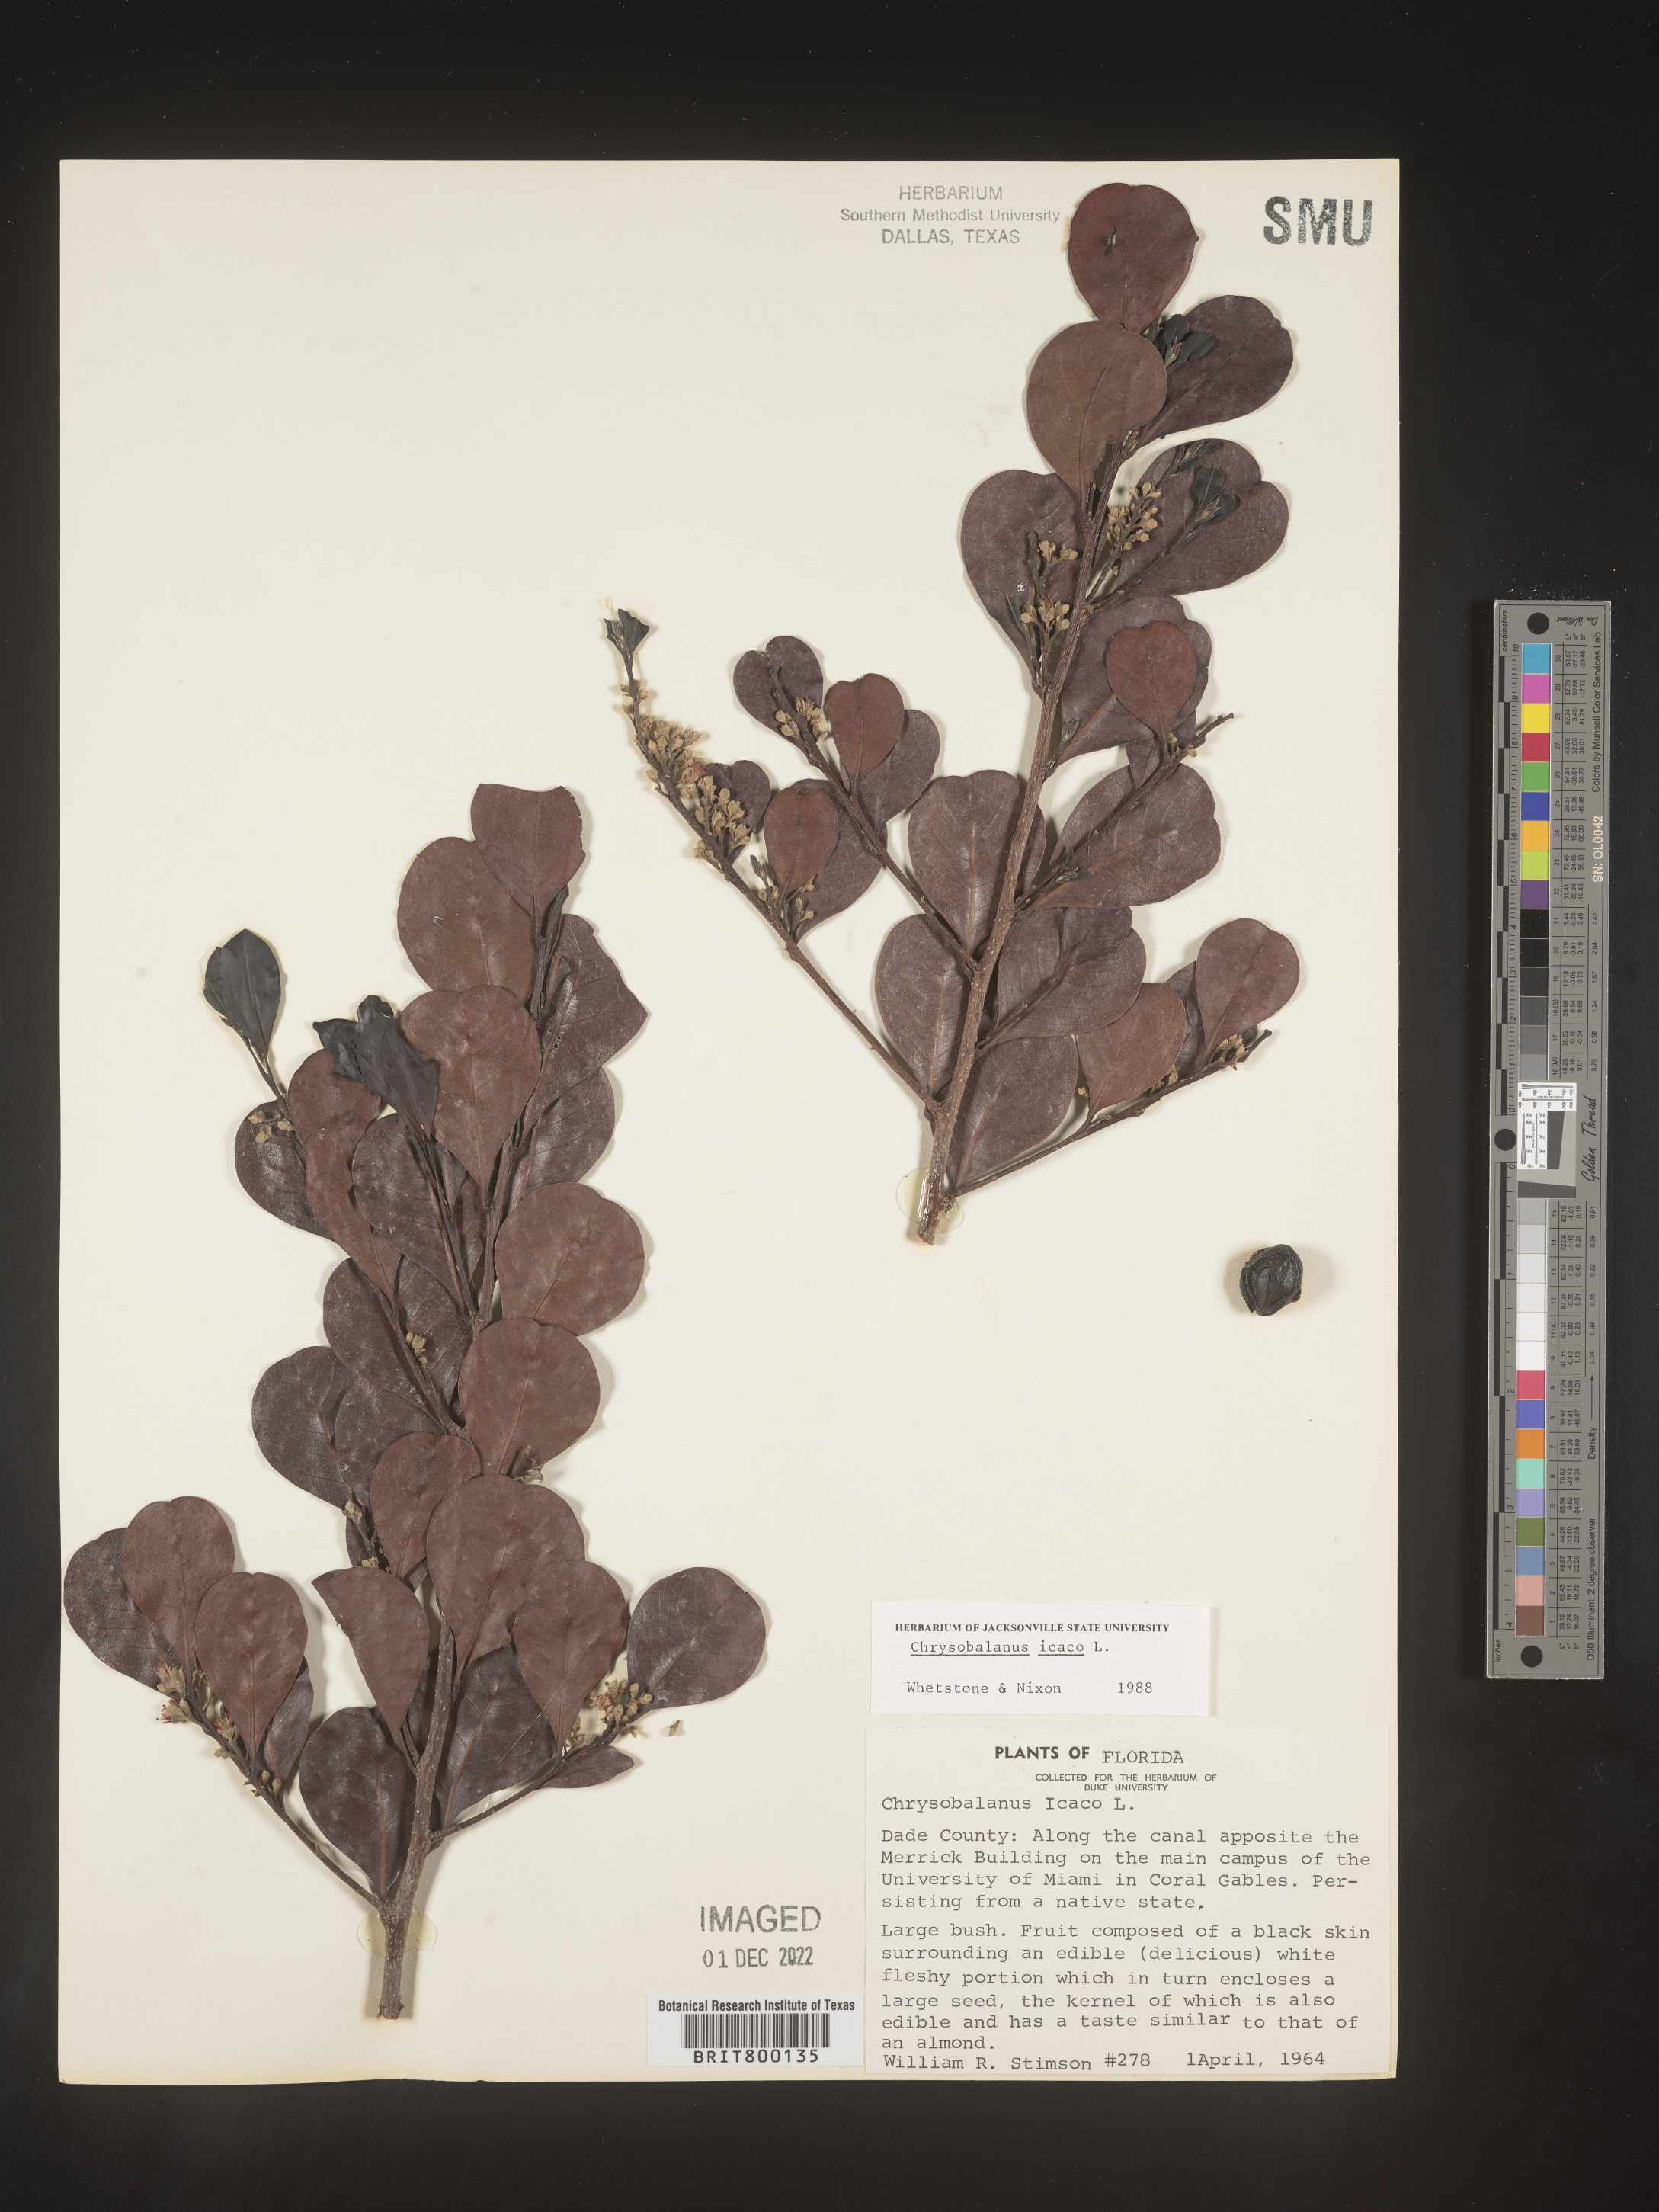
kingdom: Plantae
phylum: Tracheophyta
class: Magnoliopsida
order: Malpighiales
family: Chrysobalanaceae
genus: Chrysobalanus
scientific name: Chrysobalanus icaco
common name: Coco plum
